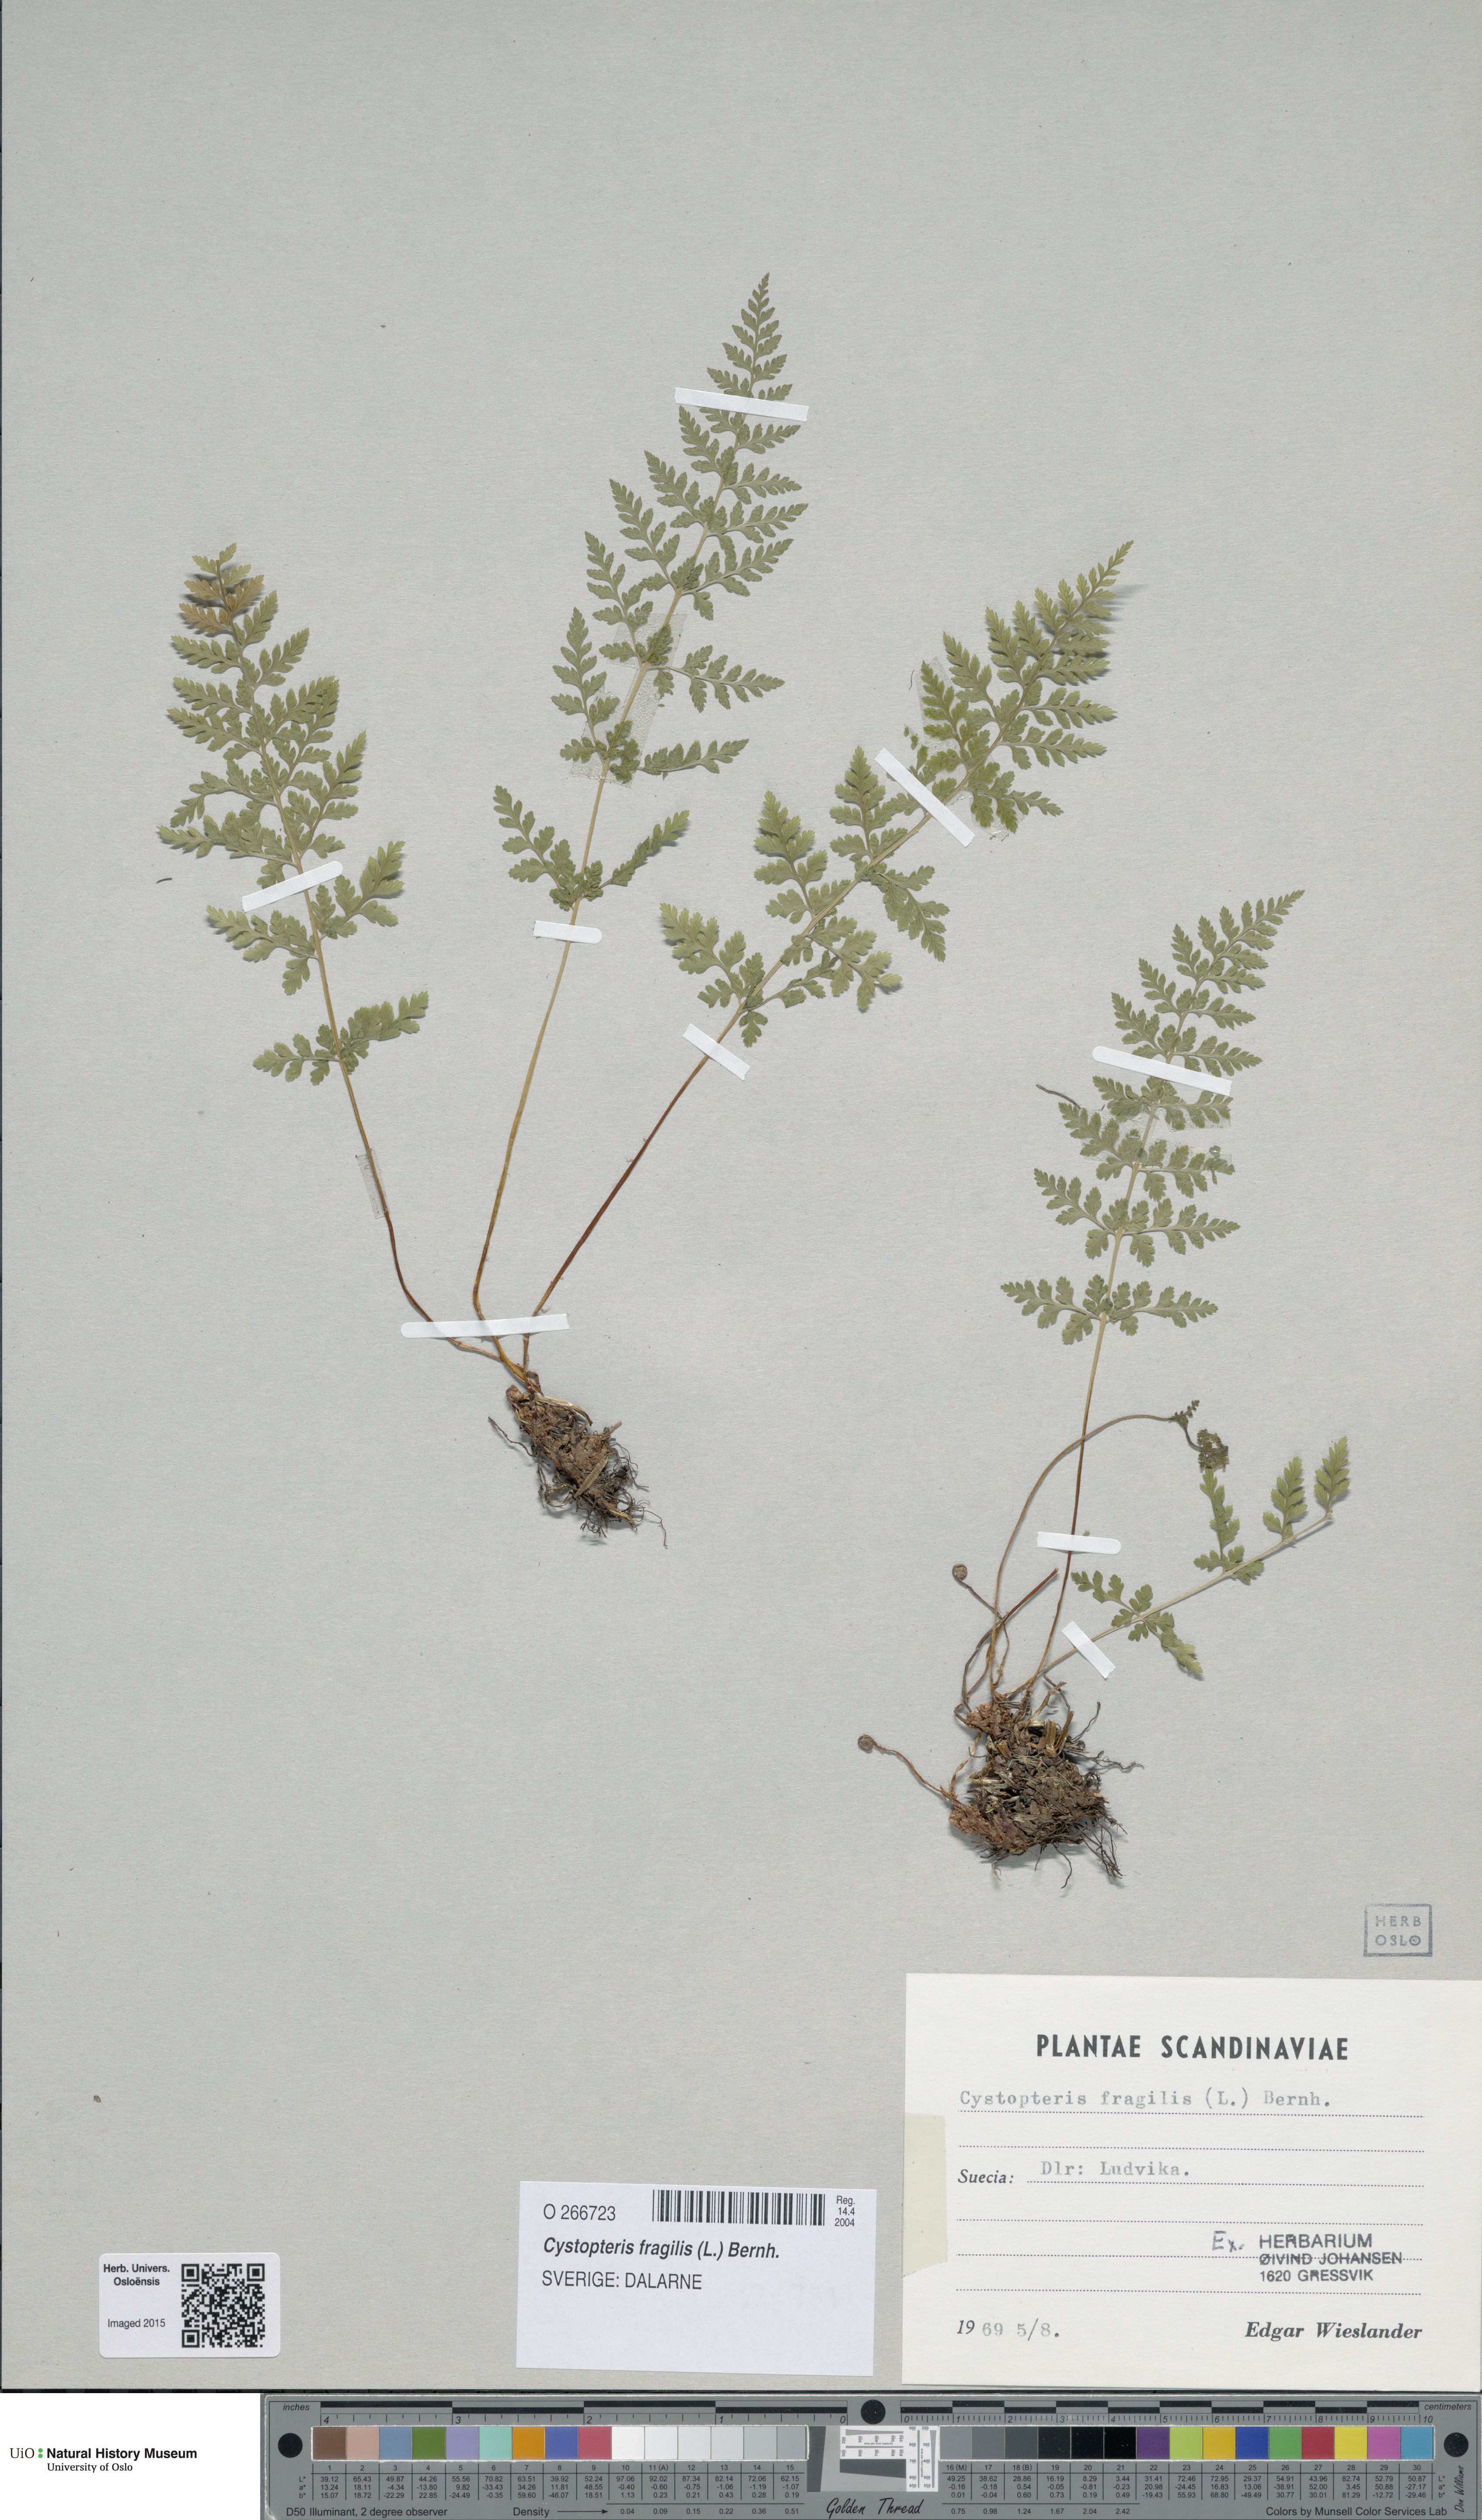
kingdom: Plantae
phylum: Tracheophyta
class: Polypodiopsida
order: Polypodiales
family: Cystopteridaceae
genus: Cystopteris
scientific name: Cystopteris fragilis
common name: Brittle bladder fern
